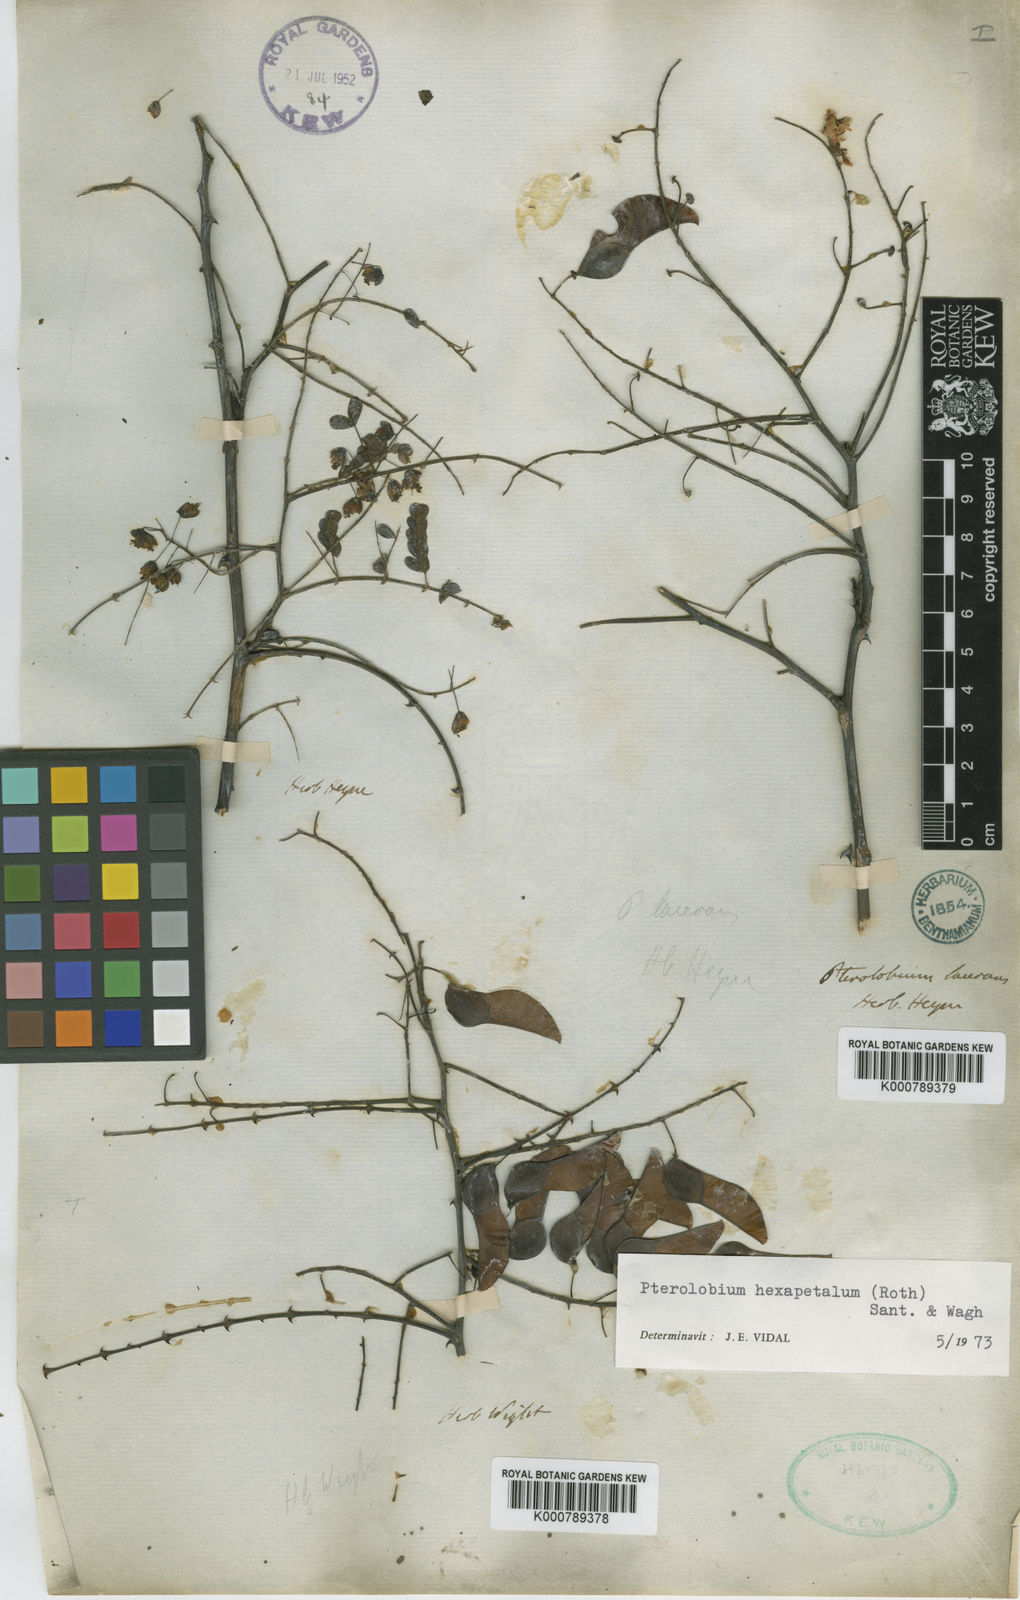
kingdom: Plantae
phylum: Tracheophyta
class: Magnoliopsida
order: Fabales
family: Fabaceae
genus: Pterolobium
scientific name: Pterolobium hexapetalum
